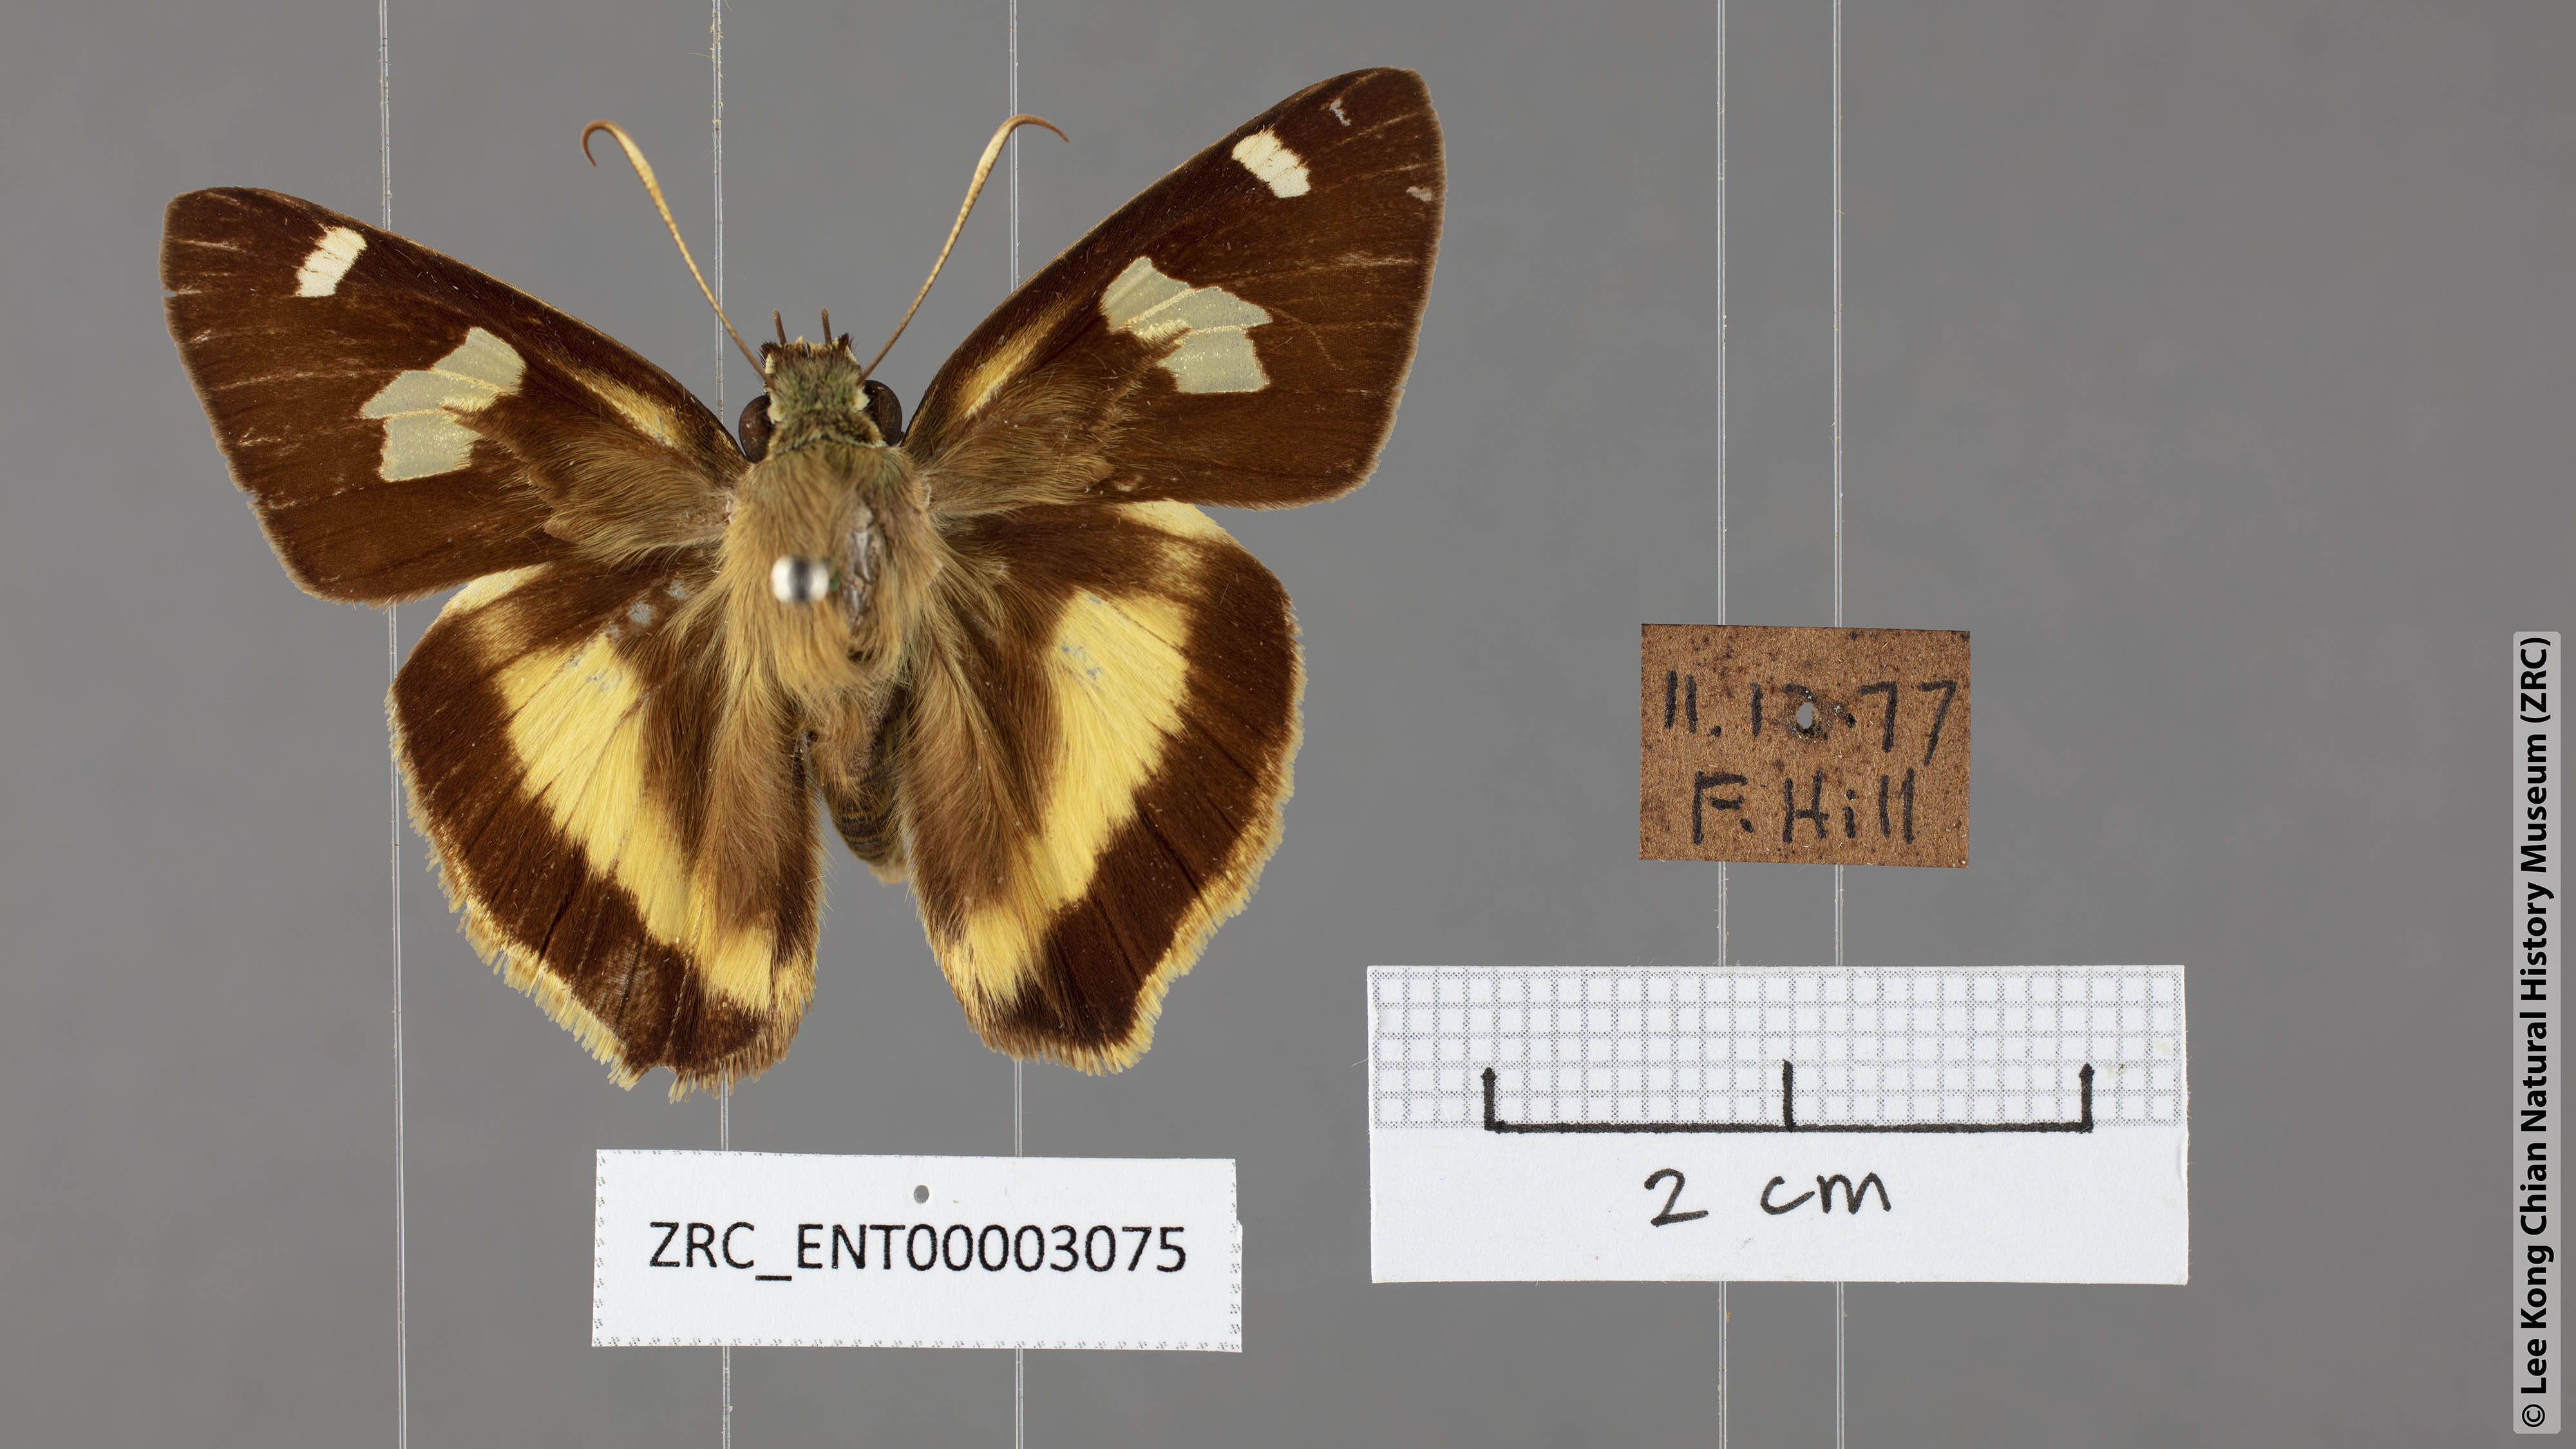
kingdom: Animalia
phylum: Arthropoda
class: Insecta
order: Lepidoptera
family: Hesperiidae
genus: Hasora
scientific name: Hasora schoenherr
